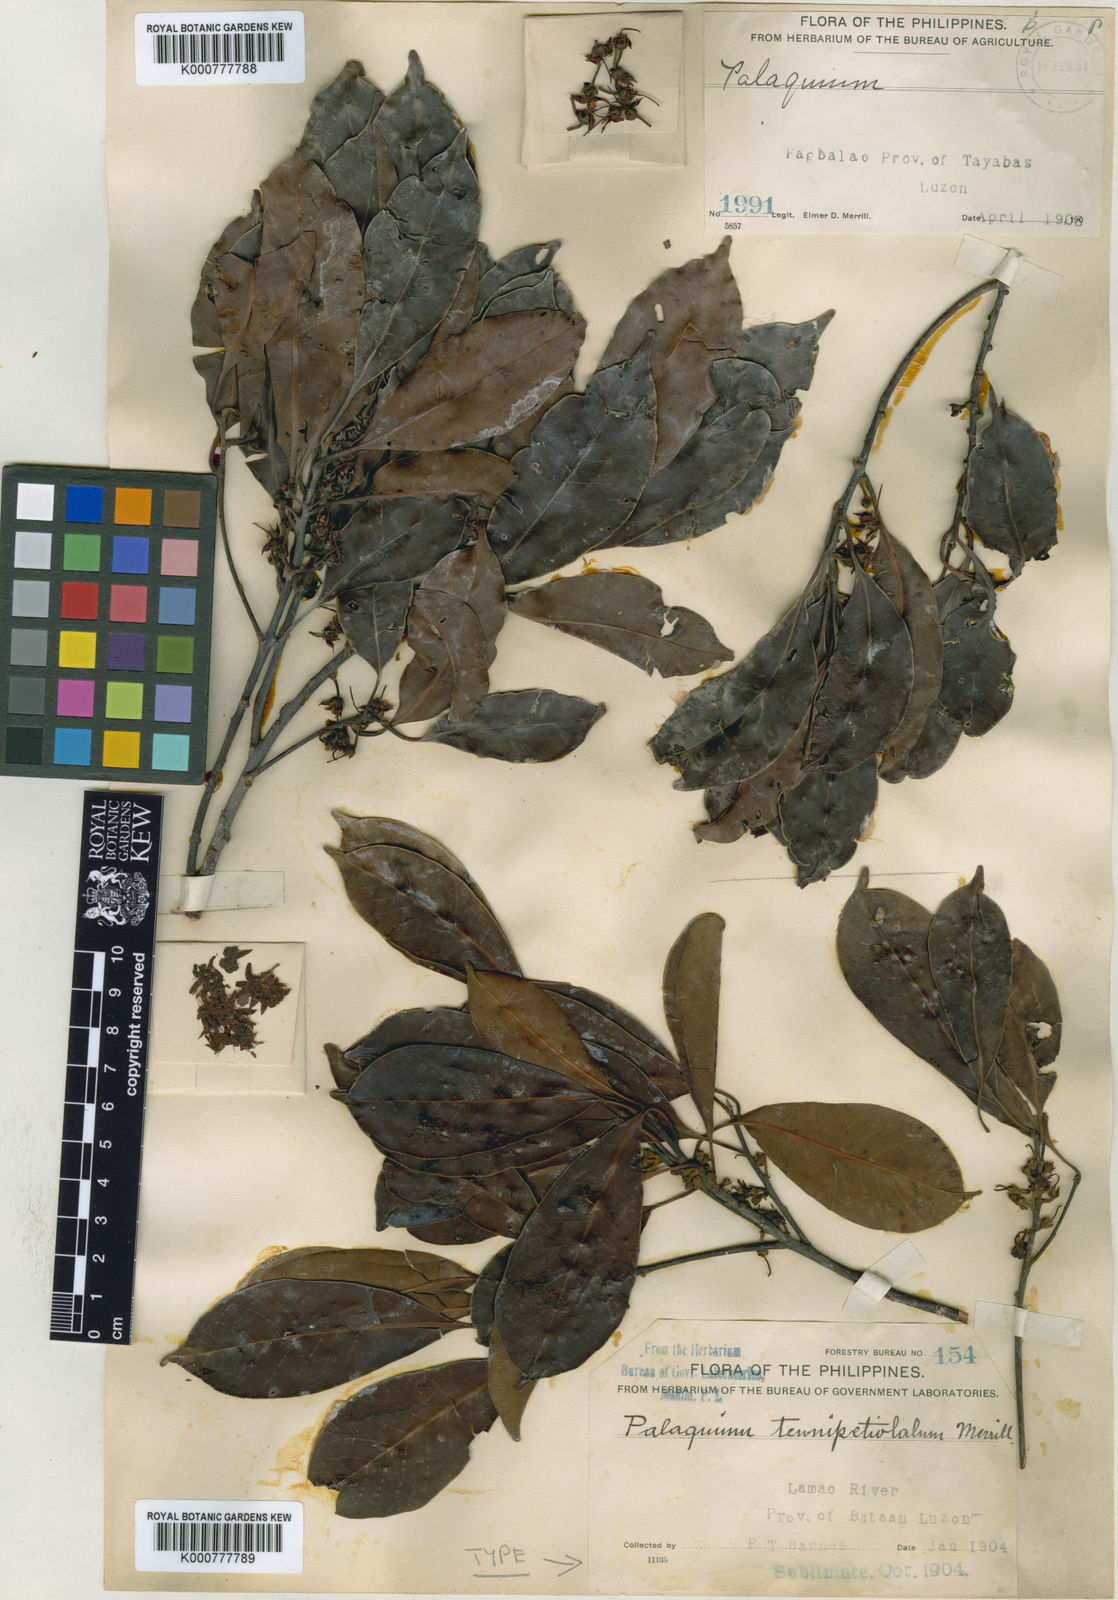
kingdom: Plantae
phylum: Tracheophyta
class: Magnoliopsida
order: Ericales
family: Sapotaceae
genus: Palaquium
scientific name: Palaquium tenuipetiolatum
